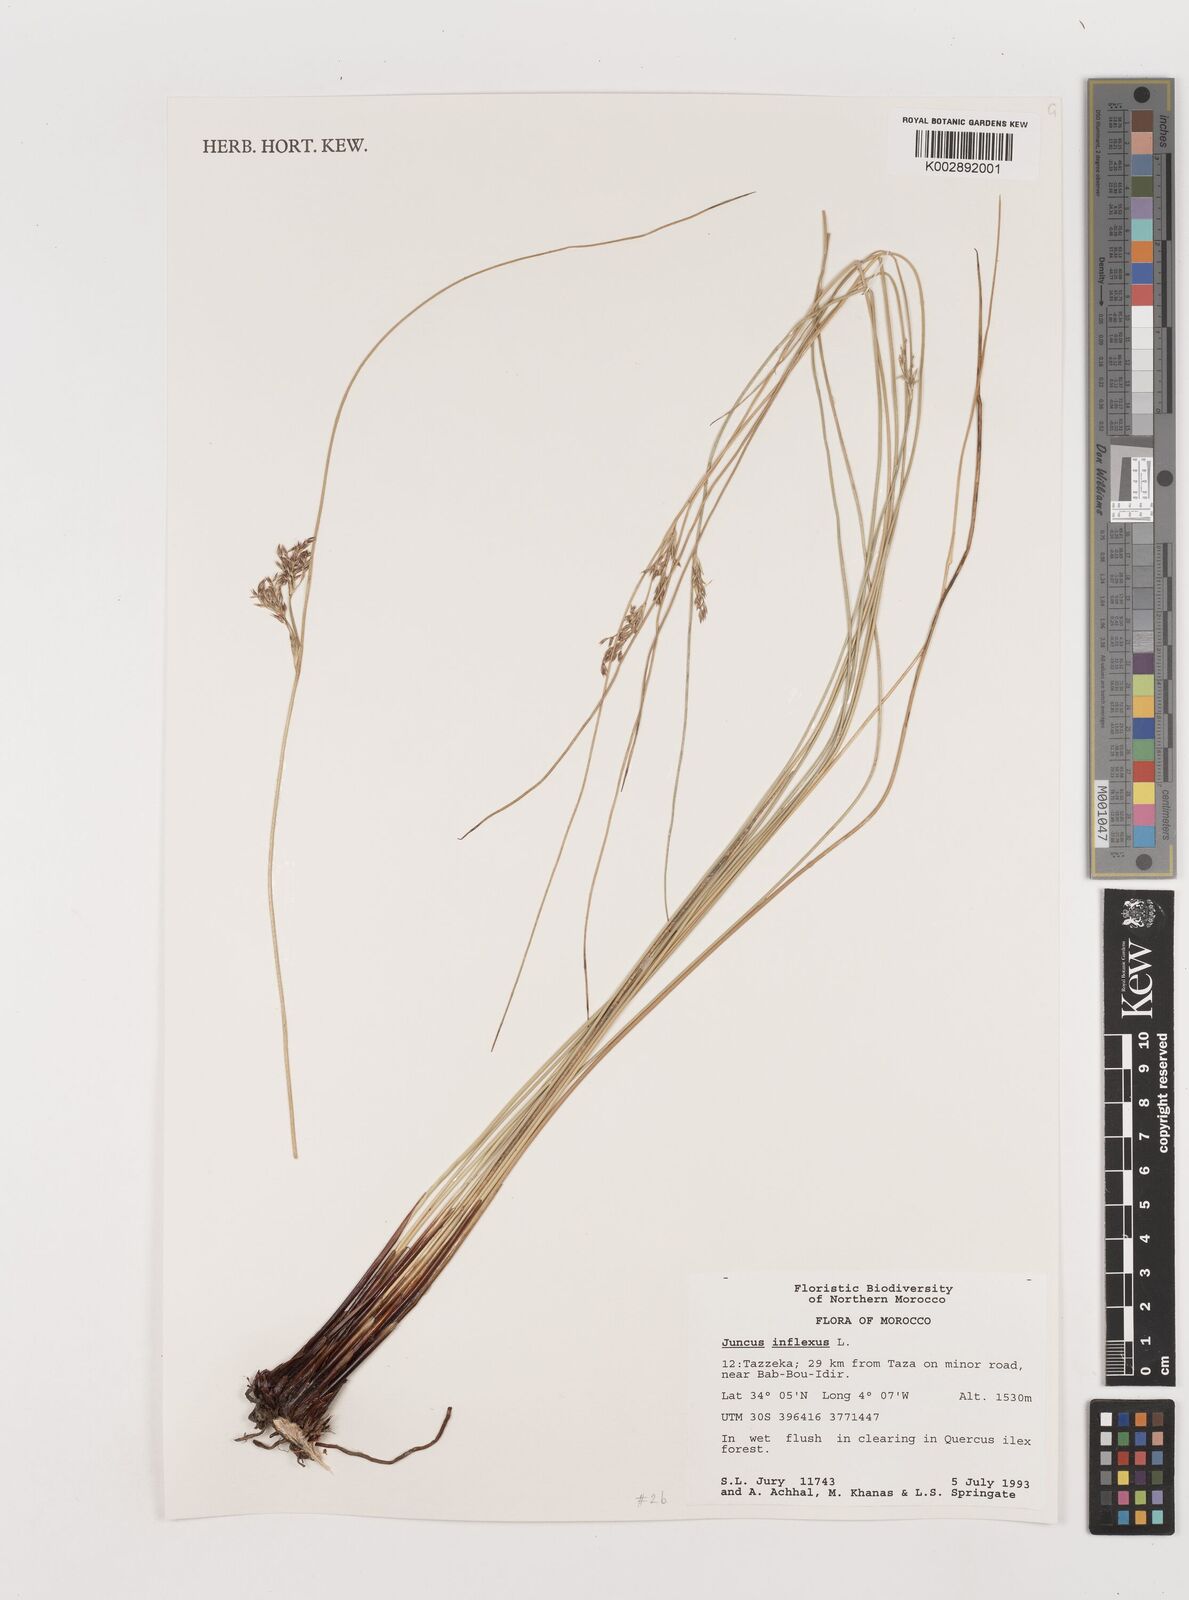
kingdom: Plantae
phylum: Tracheophyta
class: Liliopsida
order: Poales
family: Juncaceae
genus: Juncus
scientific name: Juncus inflexus
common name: Hard rush
